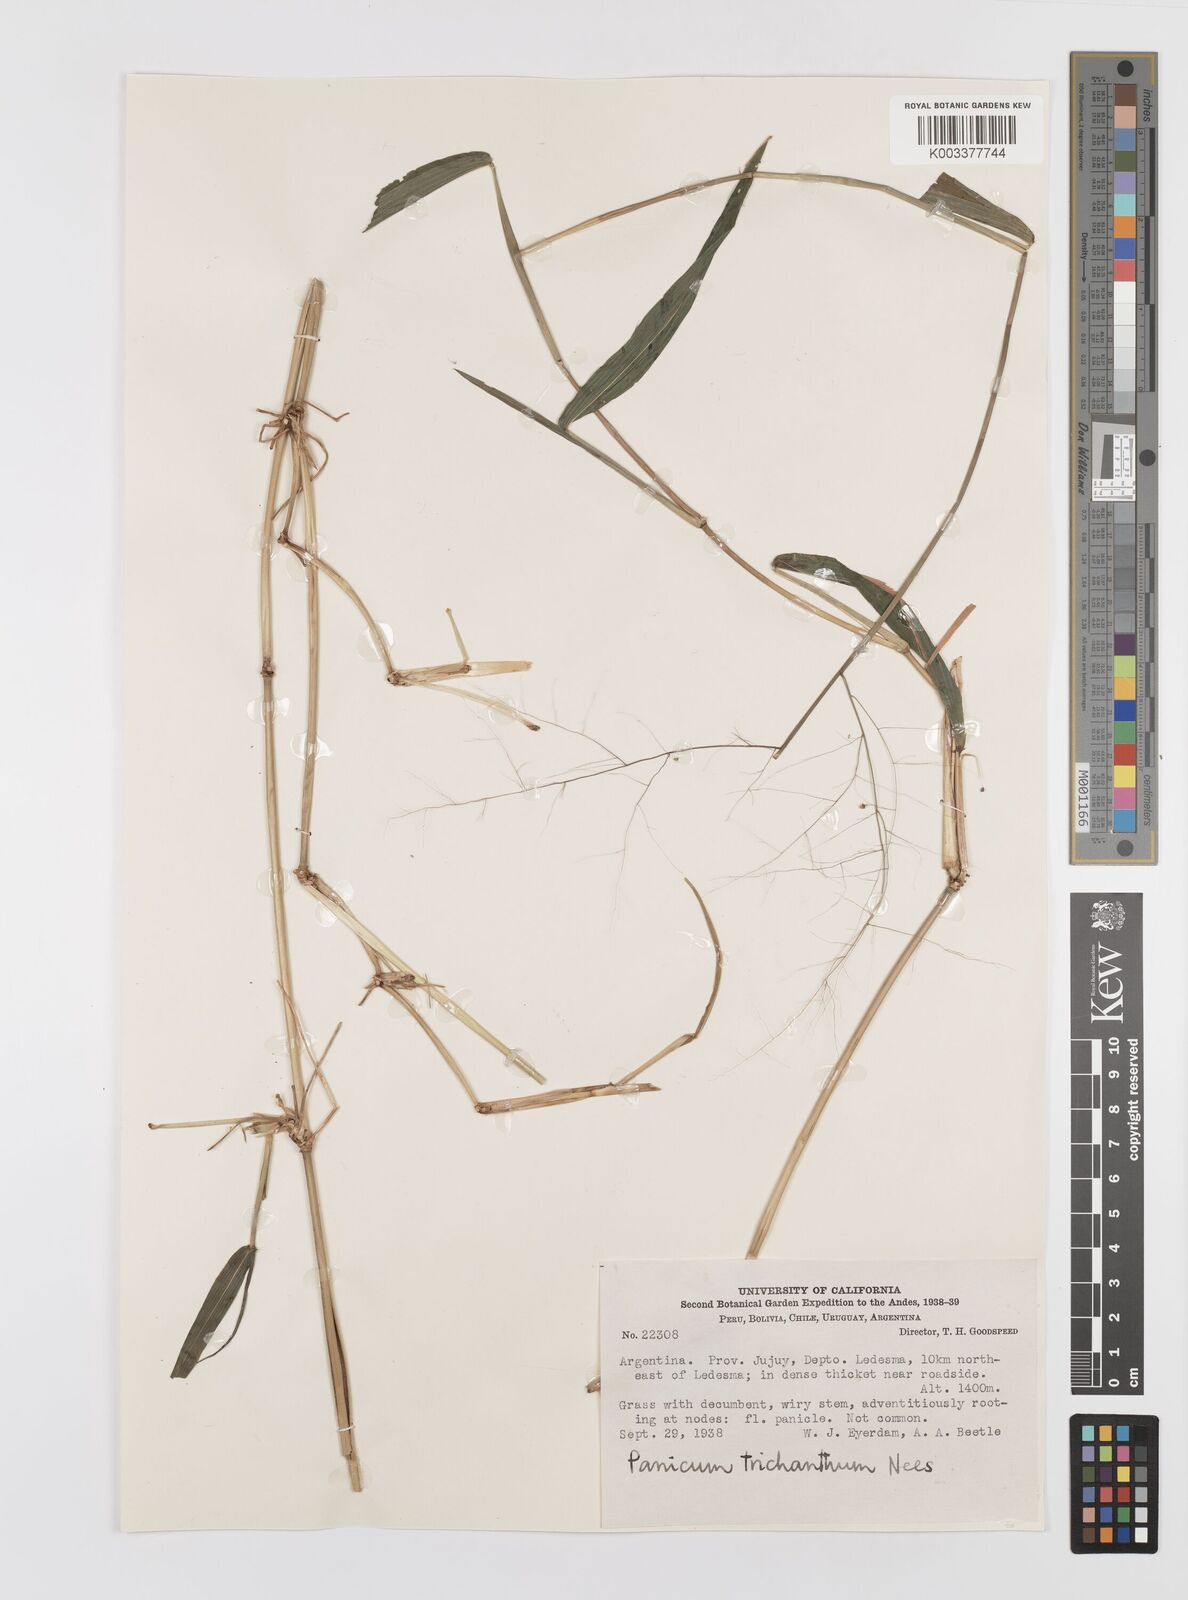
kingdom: Plantae
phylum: Tracheophyta
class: Liliopsida
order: Poales
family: Poaceae
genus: Panicum
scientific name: Panicum trichanthum
